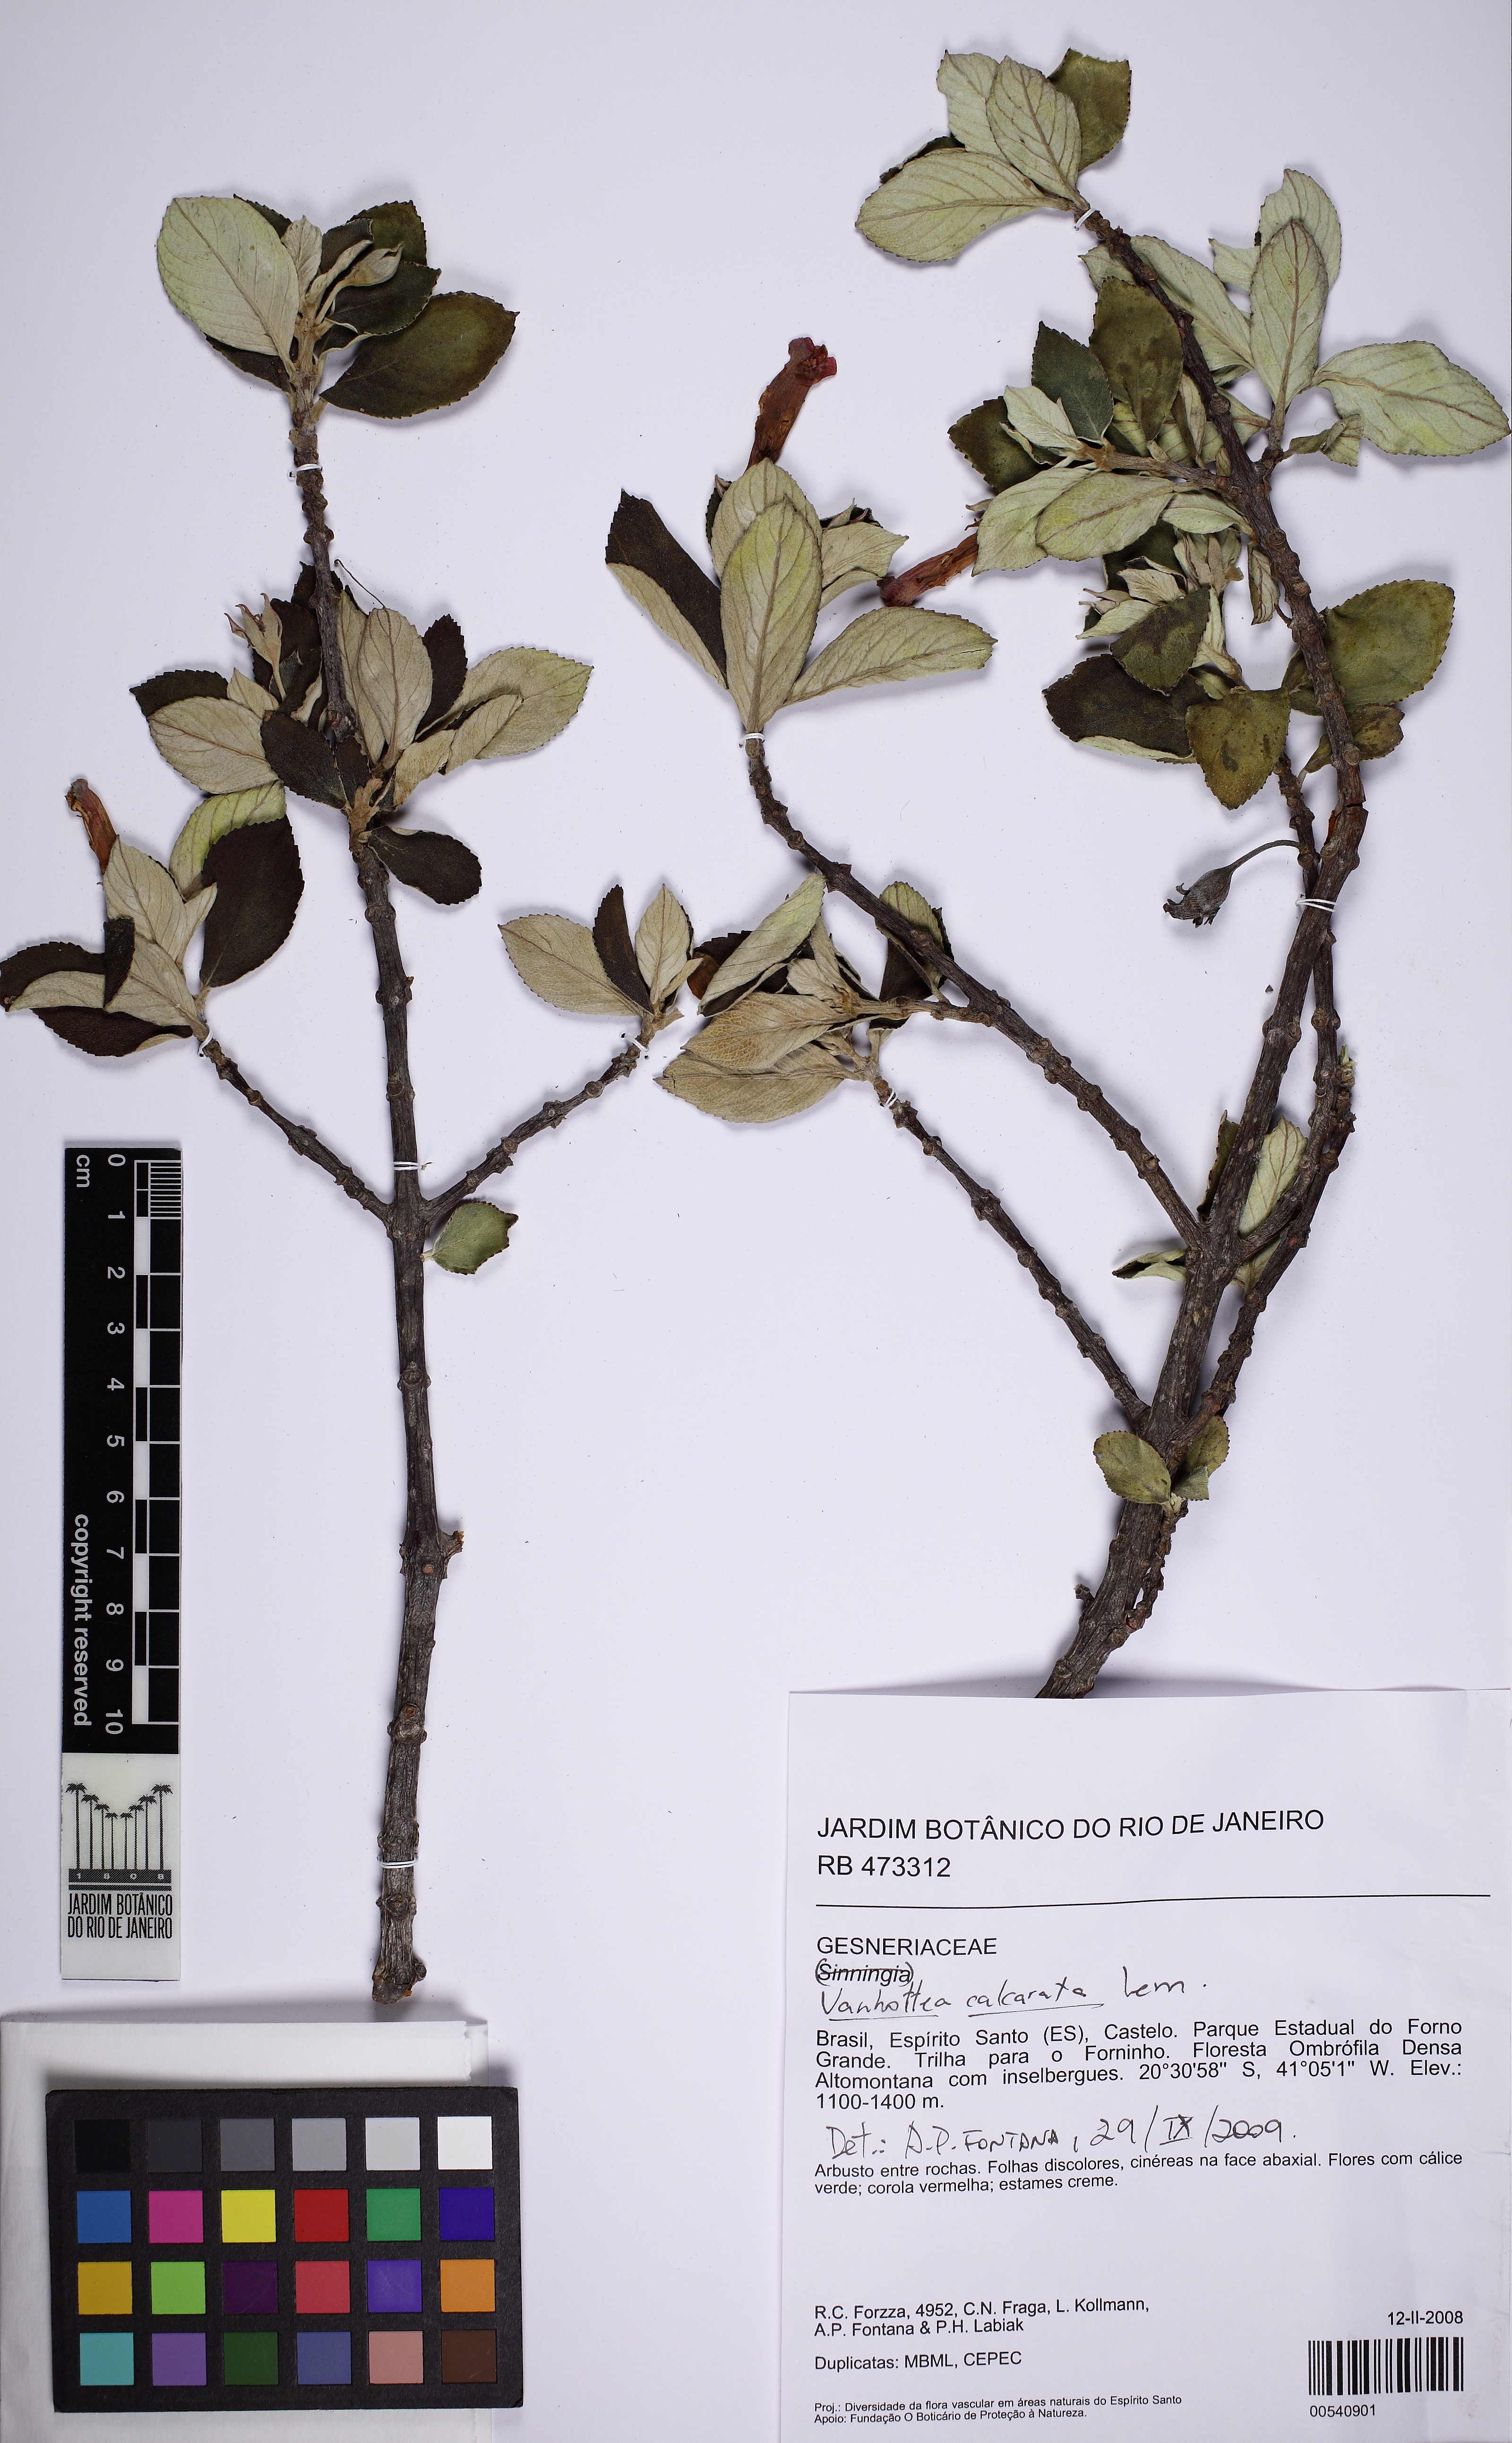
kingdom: Plantae
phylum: Tracheophyta
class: Magnoliopsida
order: Lamiales
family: Gesneriaceae
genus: Vanhouttea
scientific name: Vanhouttea calcarata
